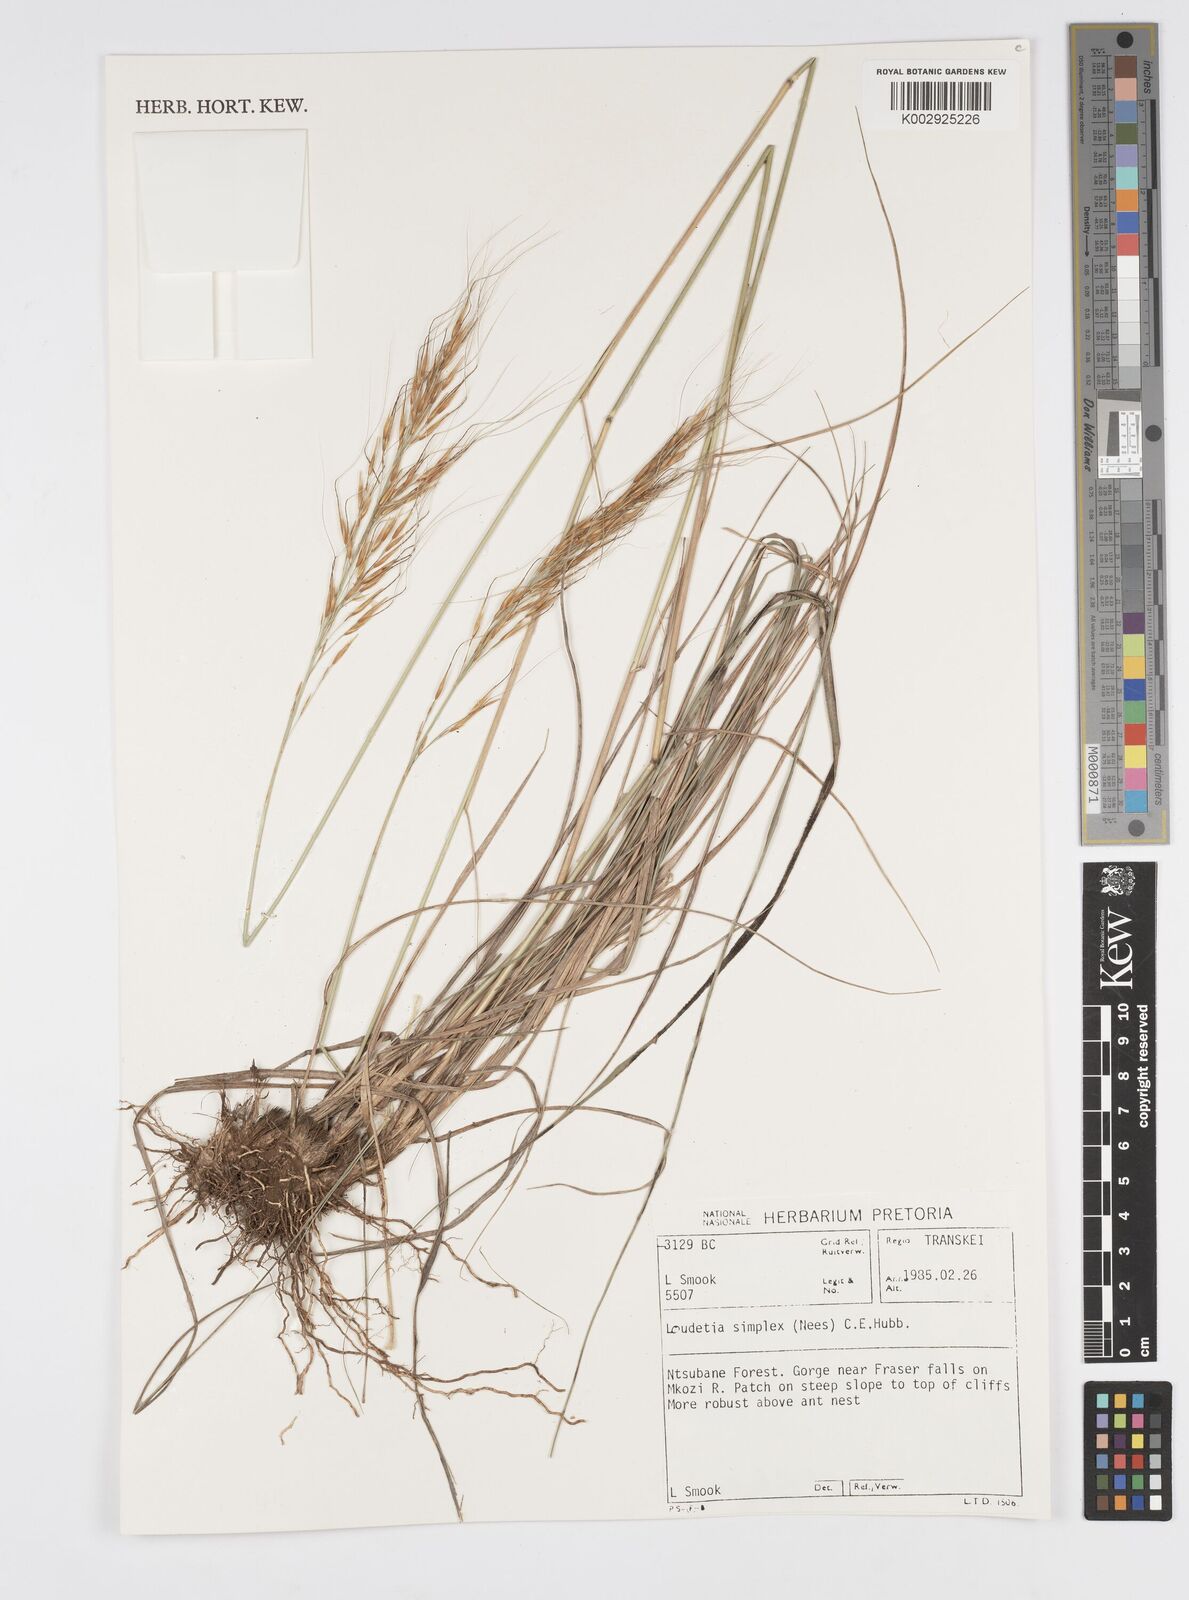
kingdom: Plantae
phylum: Tracheophyta
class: Liliopsida
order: Poales
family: Poaceae
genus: Loudetia
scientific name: Loudetia simplex
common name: Common russet grass
